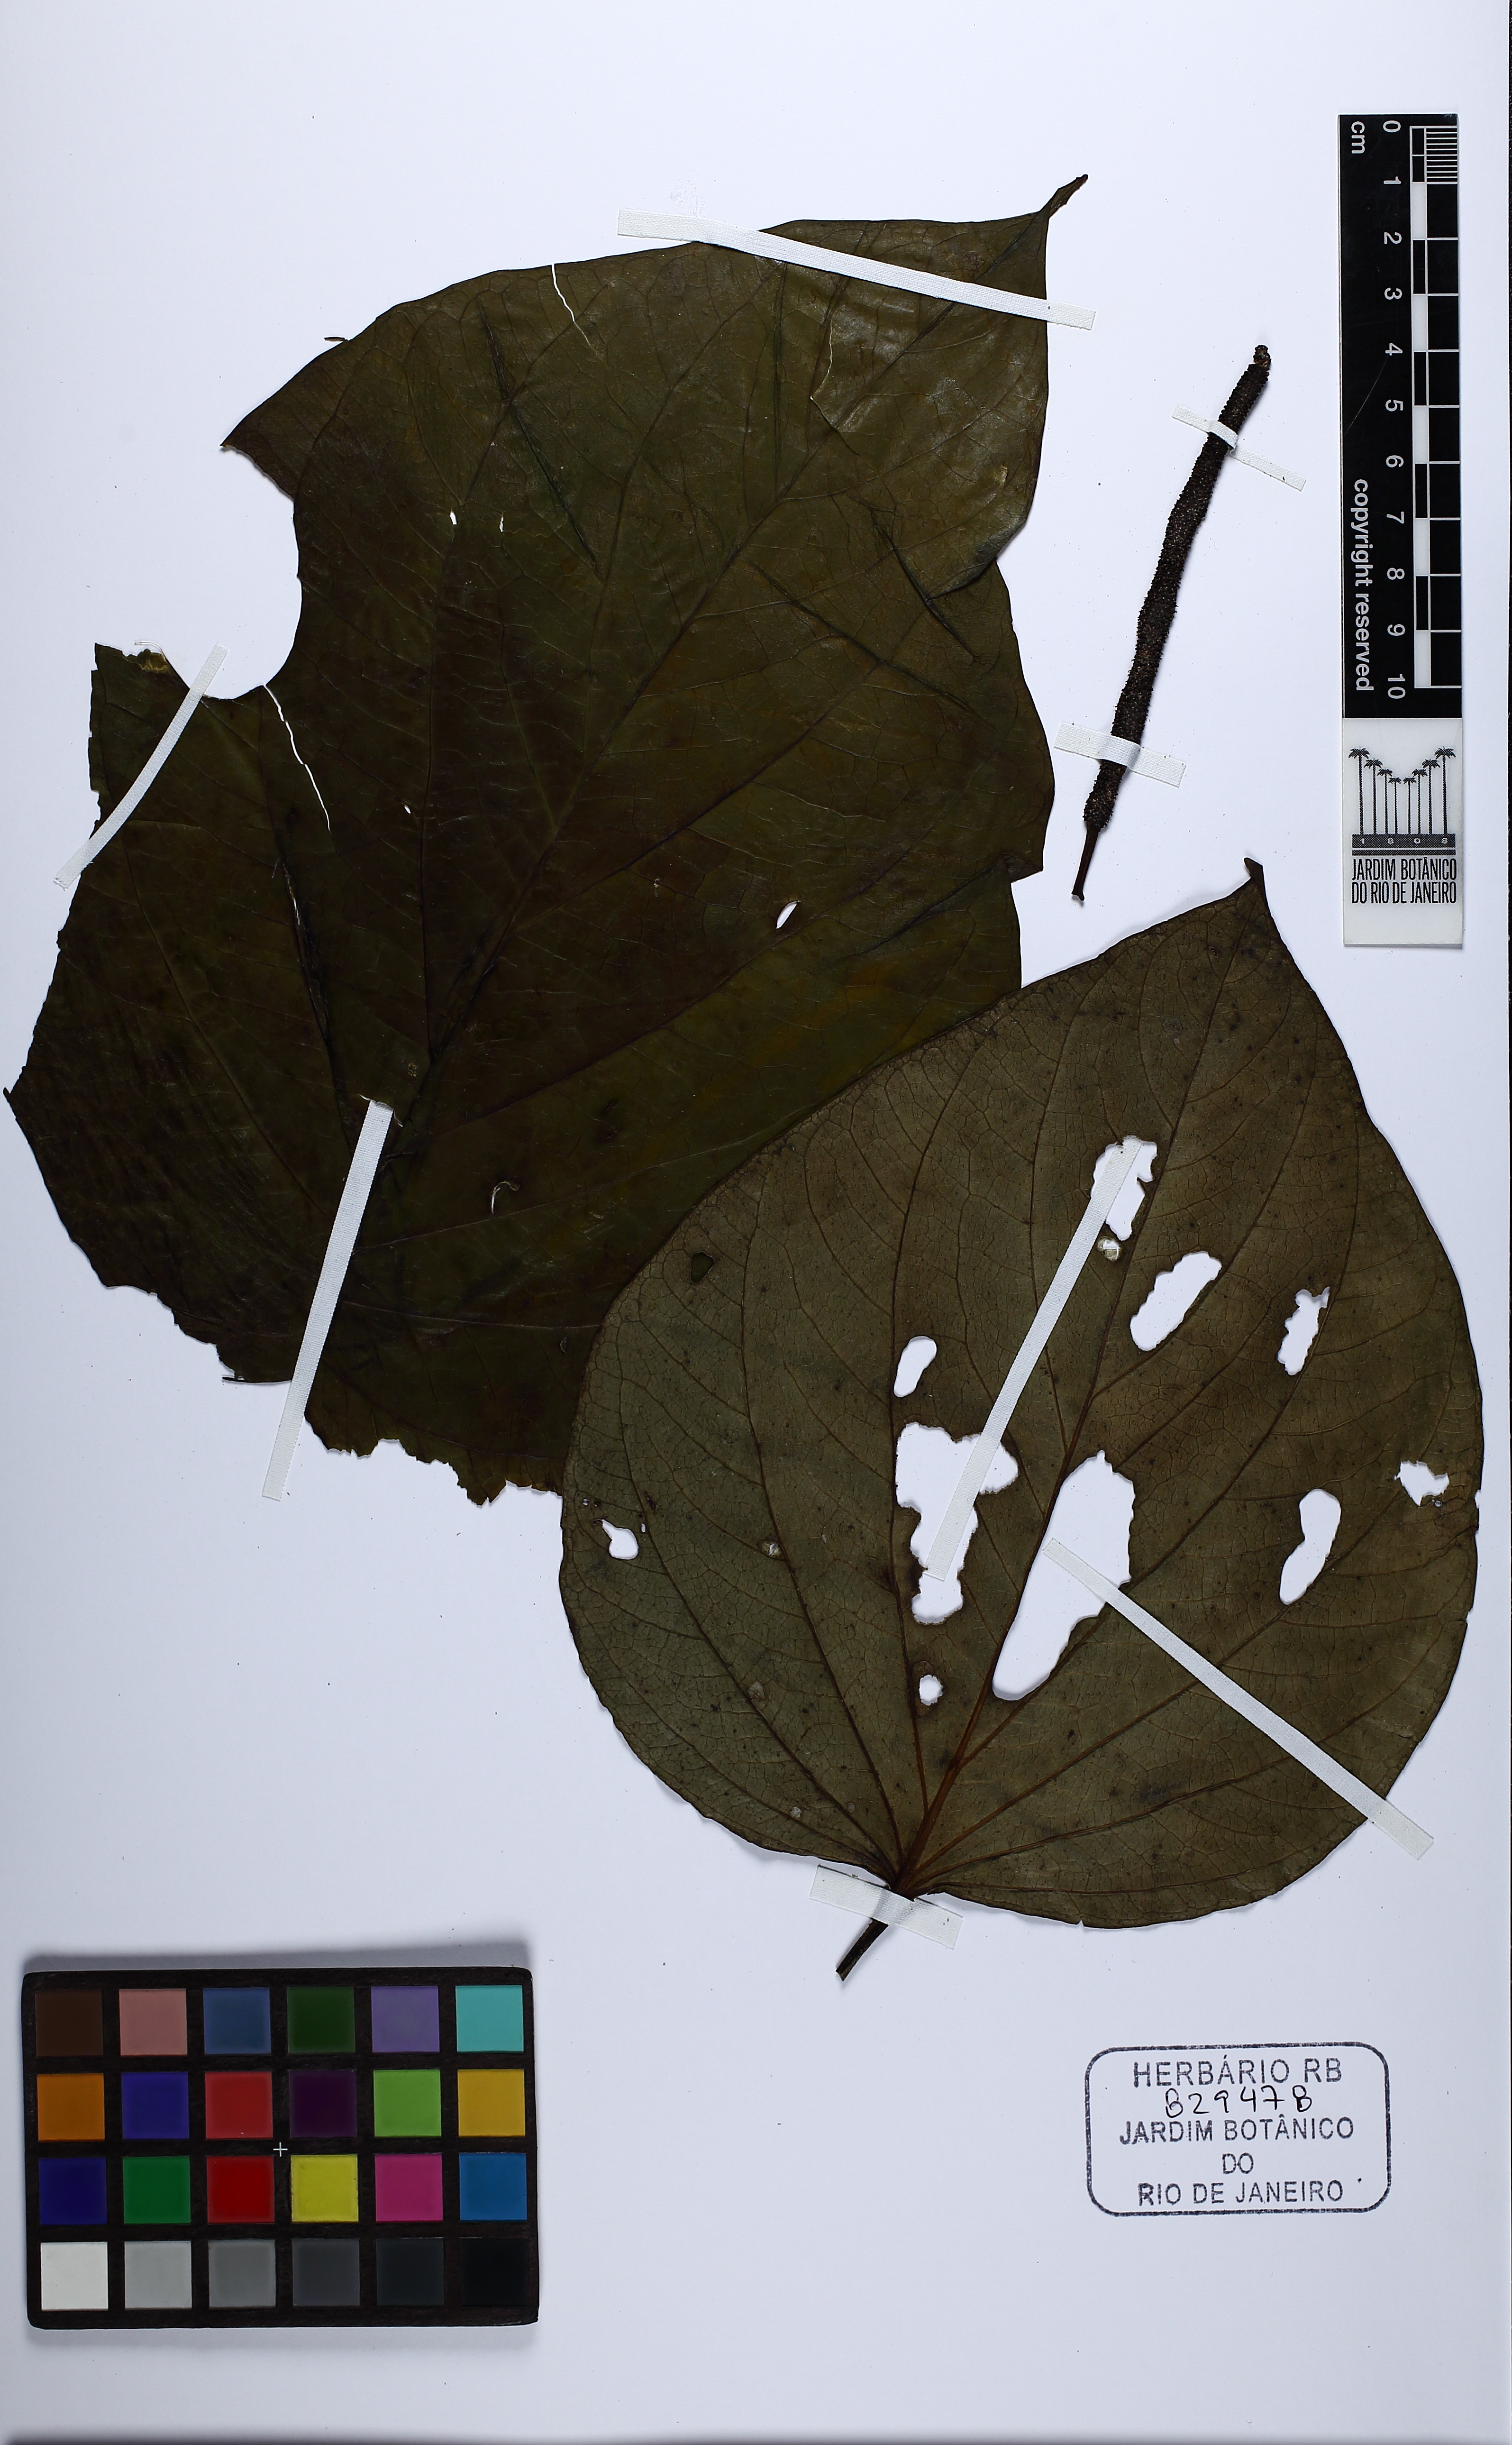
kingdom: Plantae
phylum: Tracheophyta
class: Magnoliopsida
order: Piperales
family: Piperaceae
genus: Piper
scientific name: Piper schenckii
